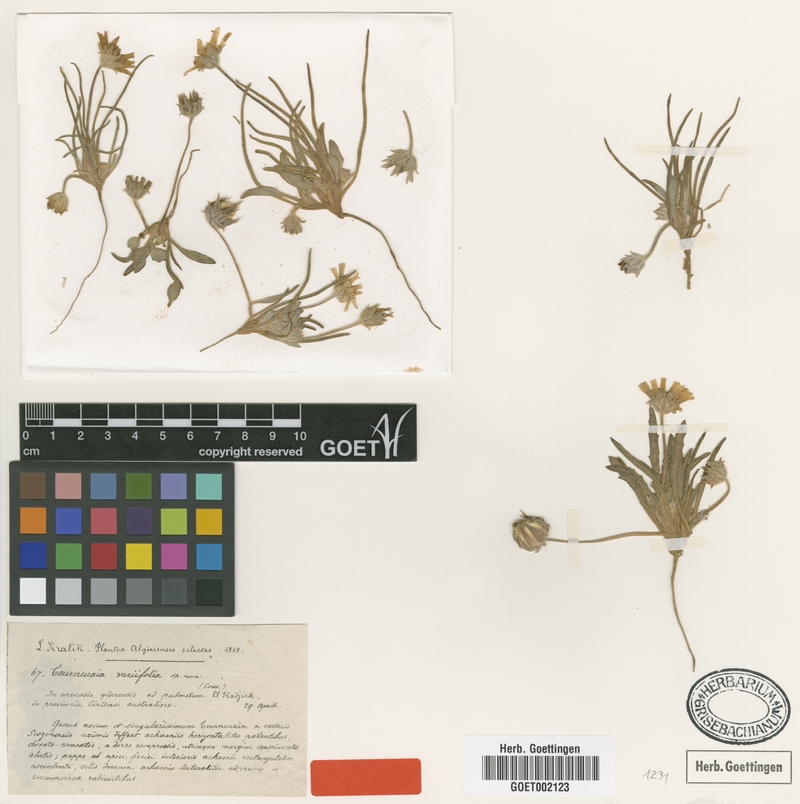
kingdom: Plantae
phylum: Tracheophyta
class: Magnoliopsida
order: Asterales
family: Asteraceae
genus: Tourneuxia
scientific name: Tourneuxia variifolia
